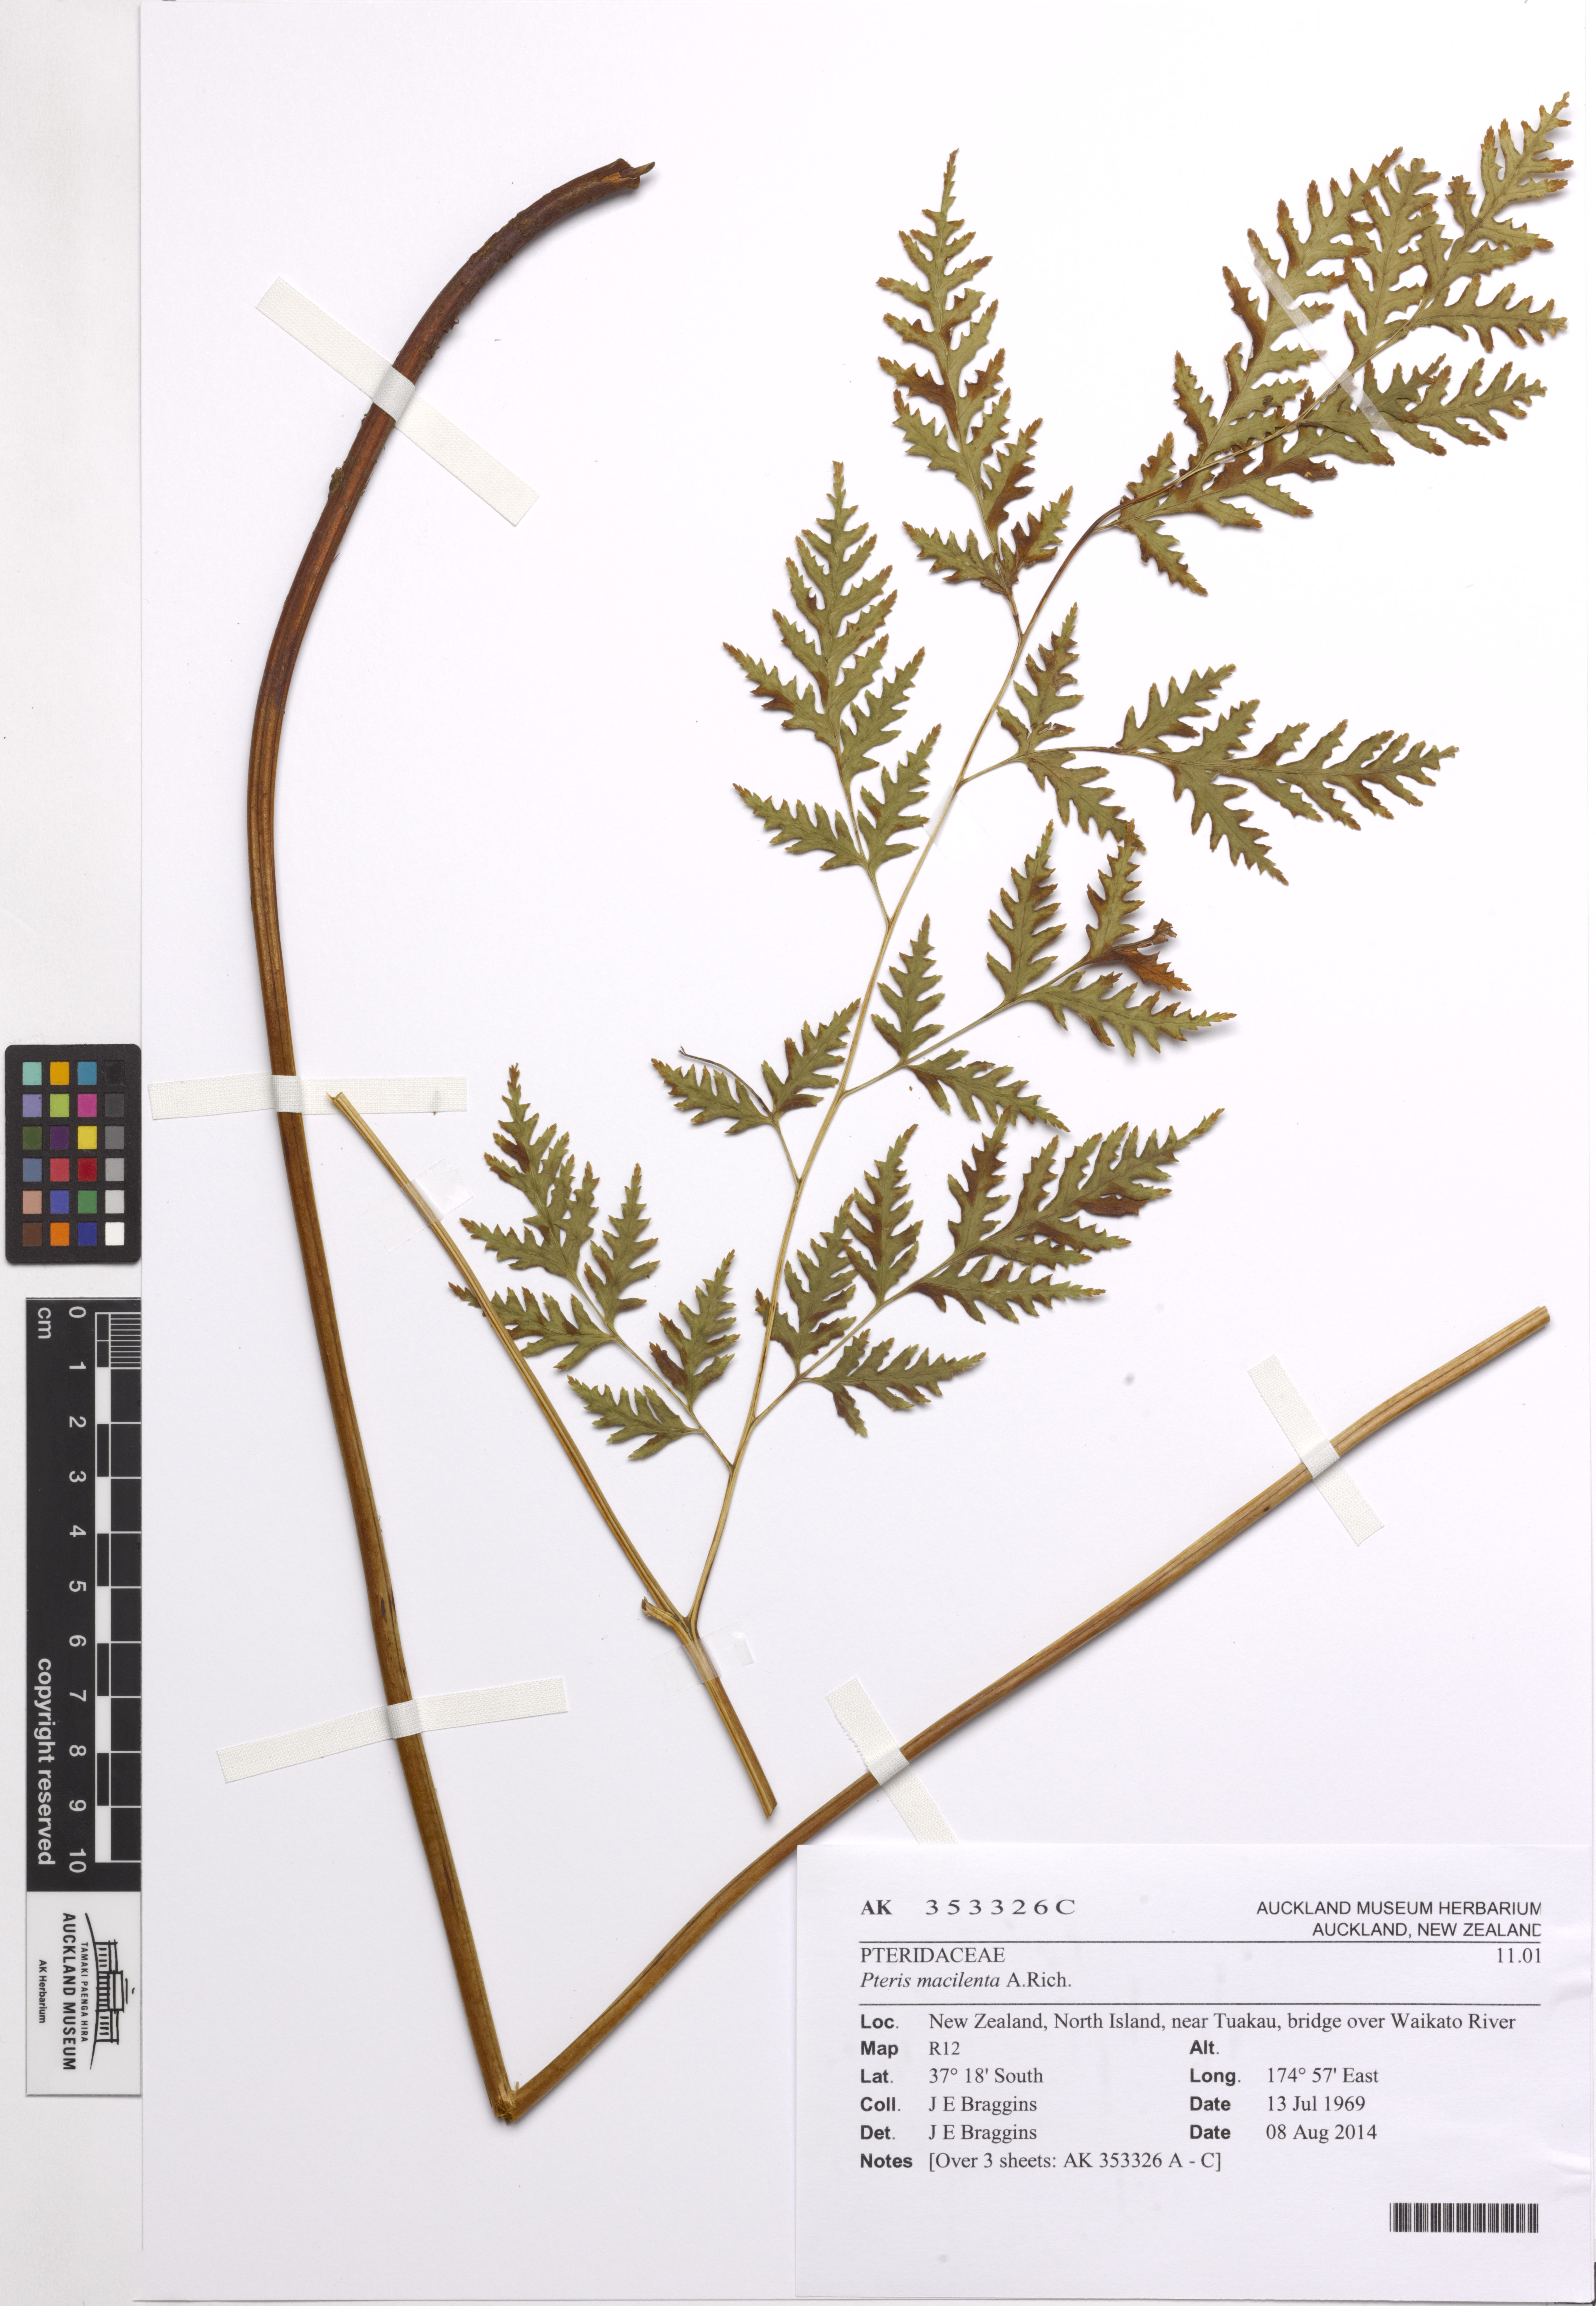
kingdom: Plantae
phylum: Tracheophyta
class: Polypodiopsida
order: Polypodiales
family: Pteridaceae
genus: Pteris
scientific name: Pteris macilenta
